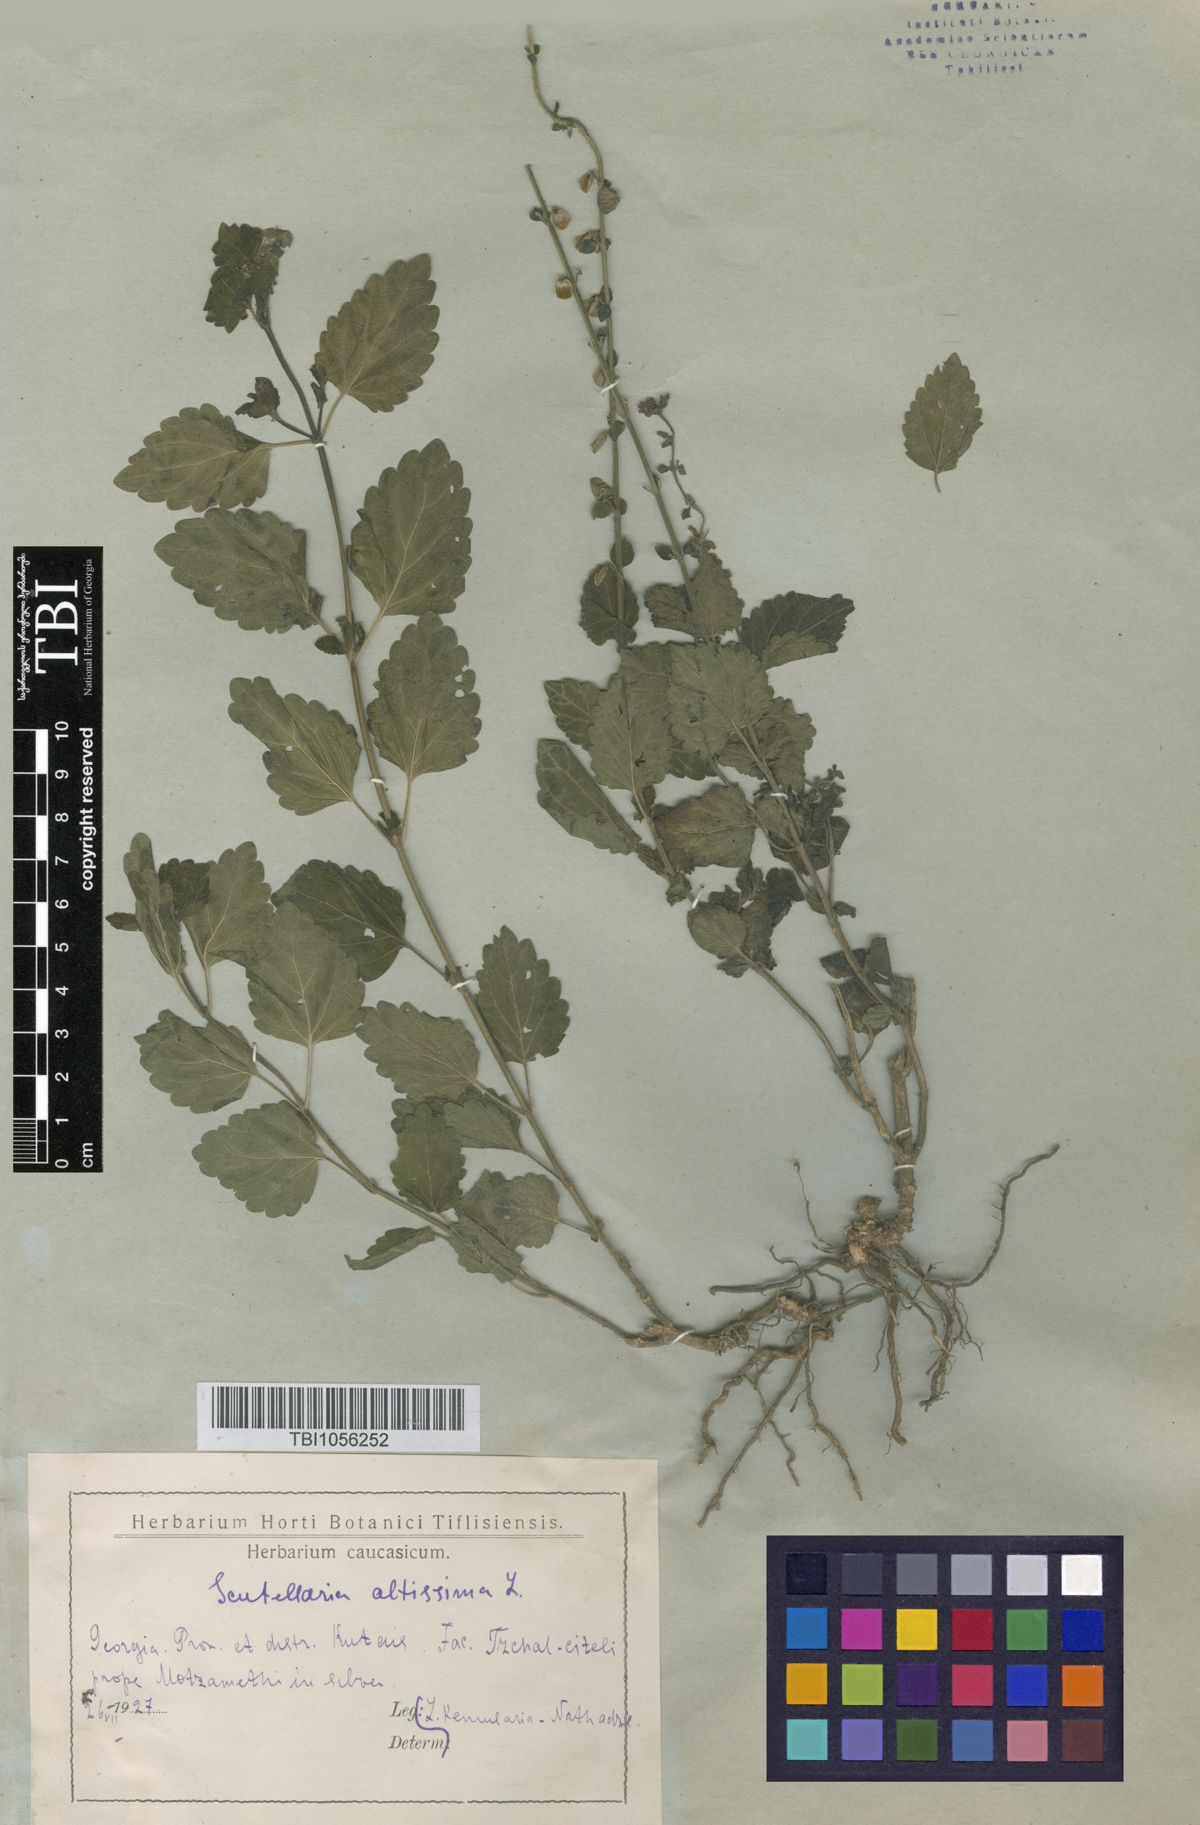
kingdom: Plantae
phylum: Tracheophyta
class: Magnoliopsida
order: Lamiales
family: Lamiaceae
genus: Scutellaria
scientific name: Scutellaria altissima
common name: Somerset skullcap
